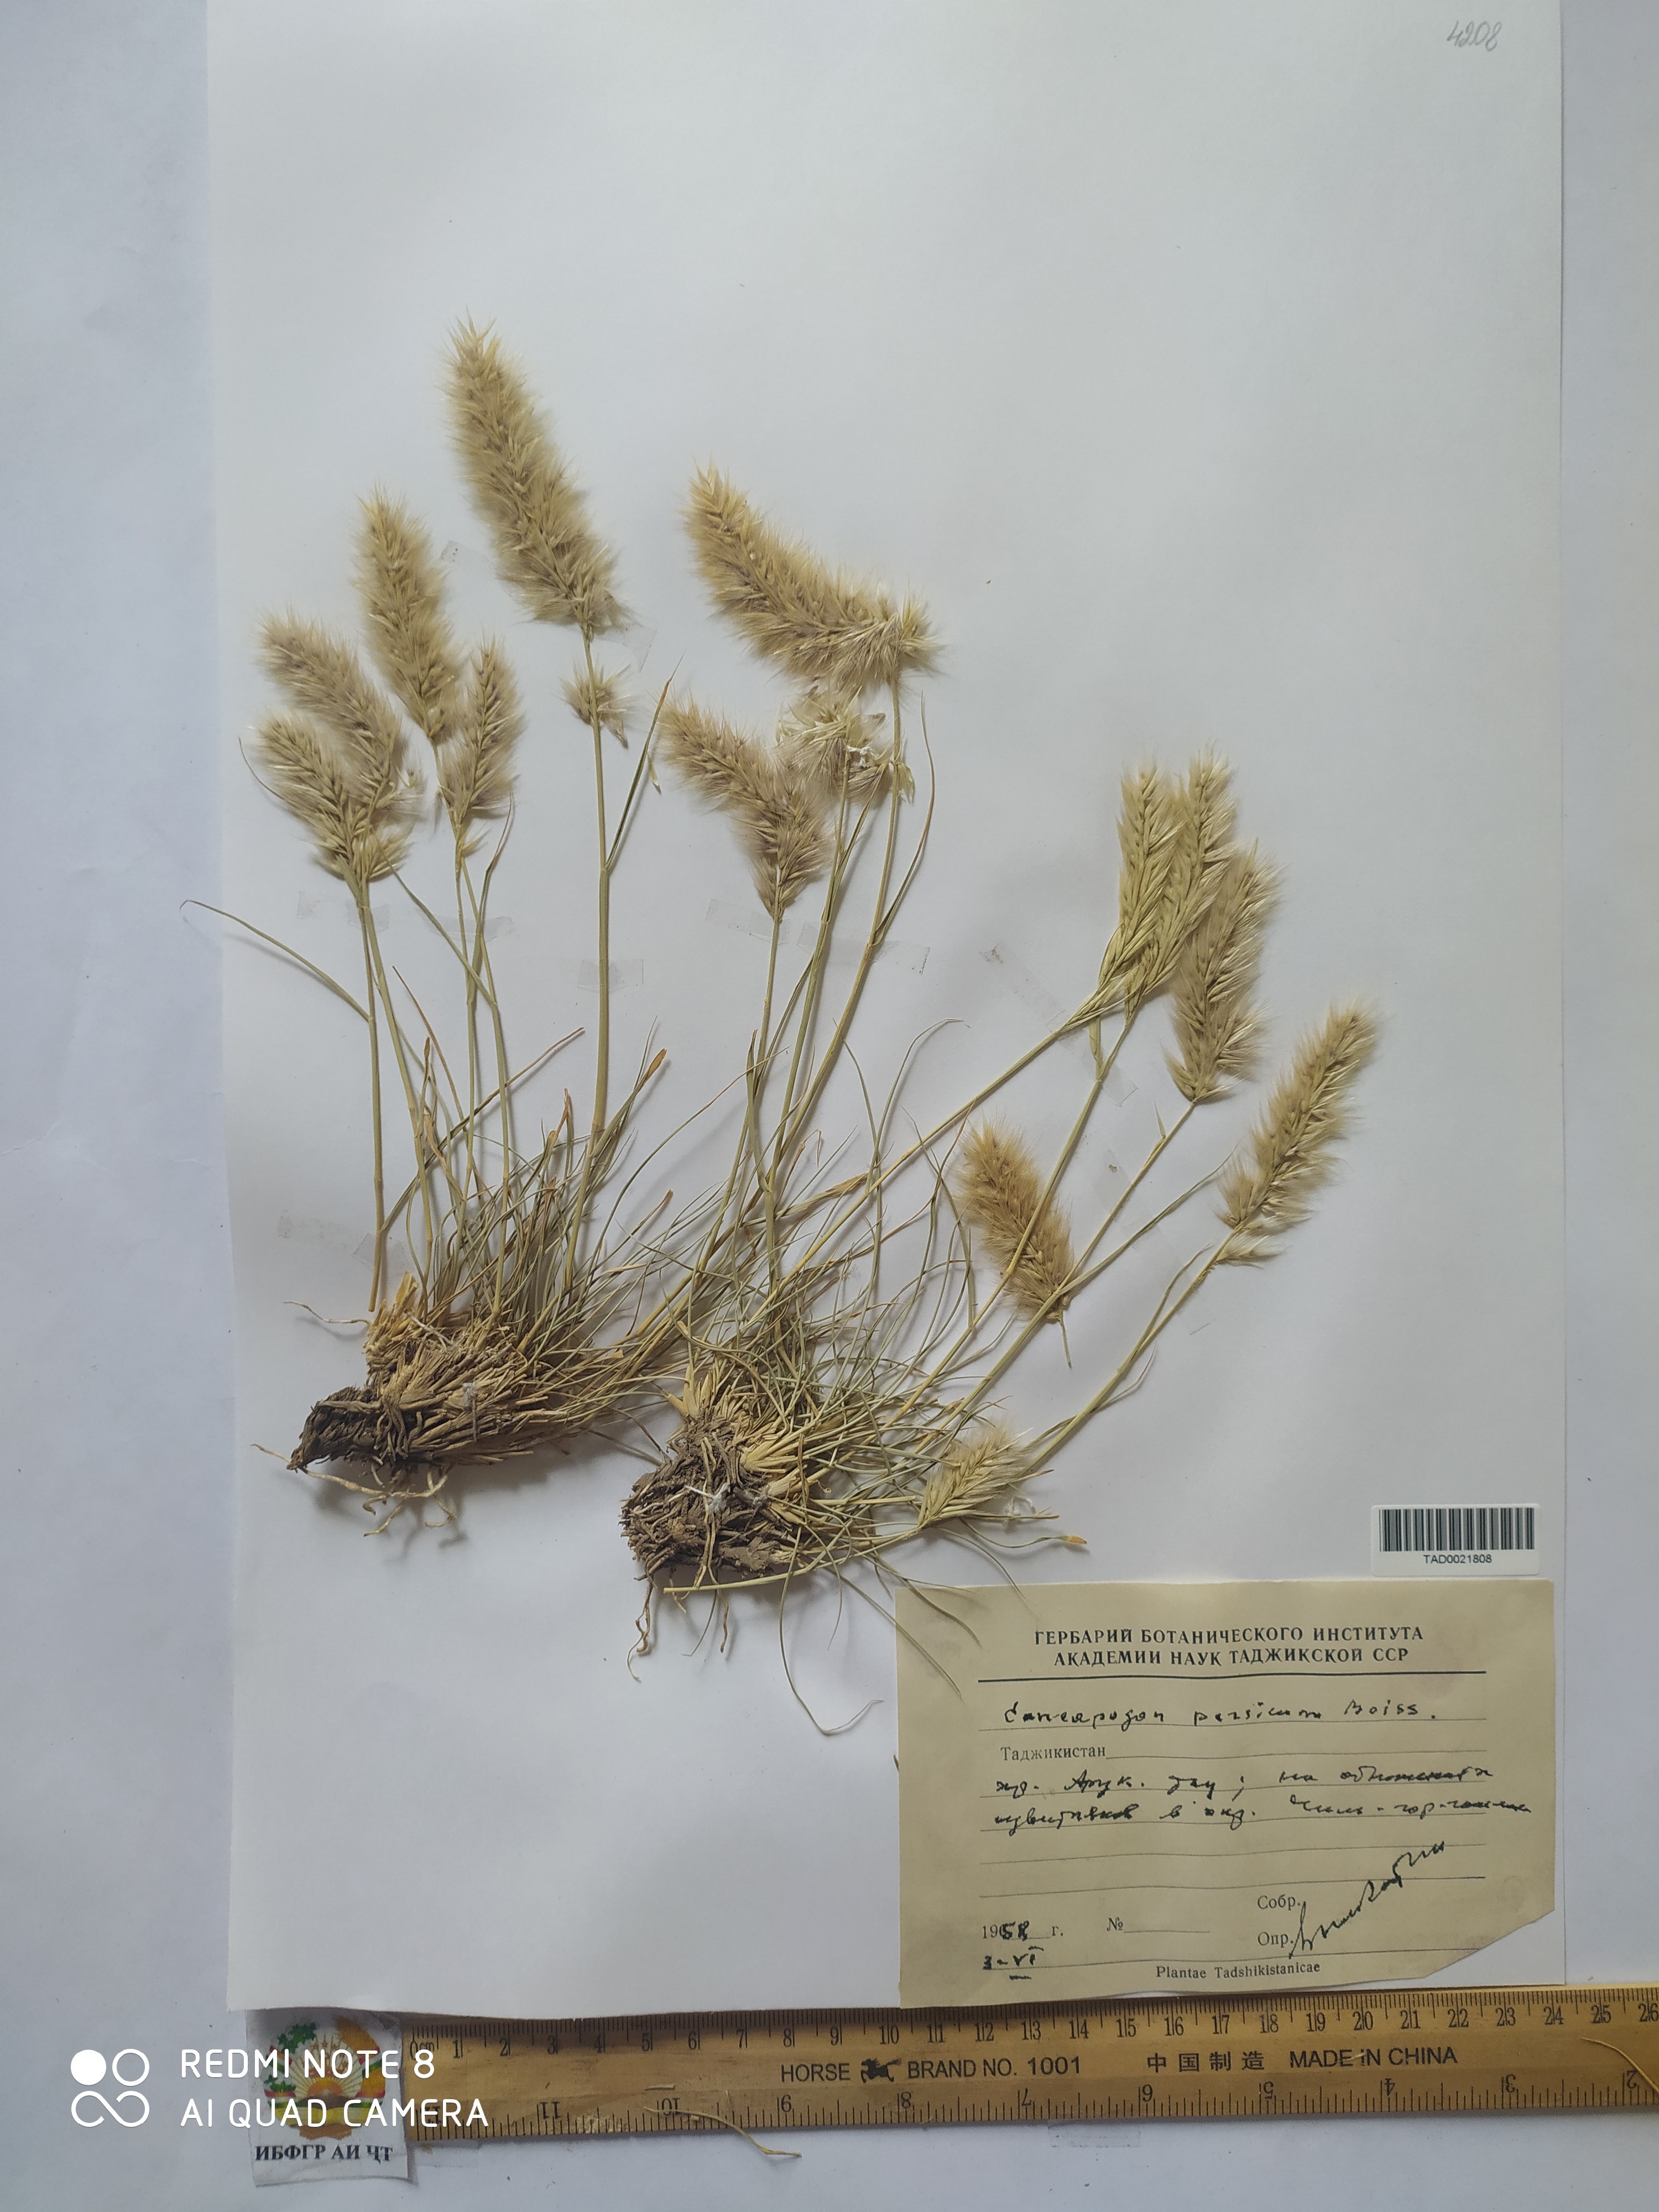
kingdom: Plantae
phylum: Tracheophyta
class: Liliopsida
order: Poales
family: Poaceae
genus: Enneapogon
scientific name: Enneapogon persicus
